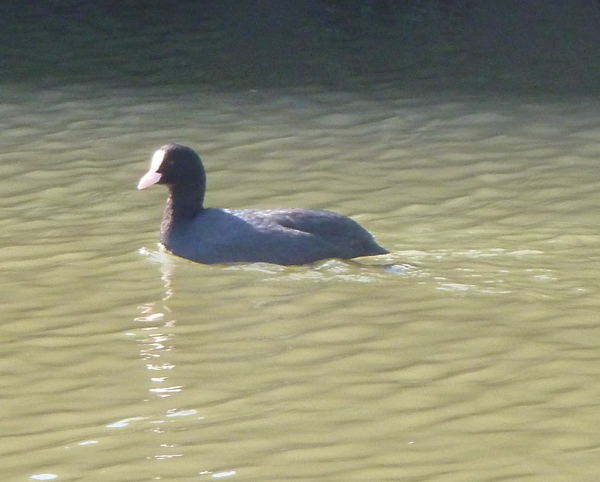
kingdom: Animalia
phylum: Chordata
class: Aves
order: Gruiformes
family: Rallidae
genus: Fulica
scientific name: Fulica atra
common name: Eurasian coot
